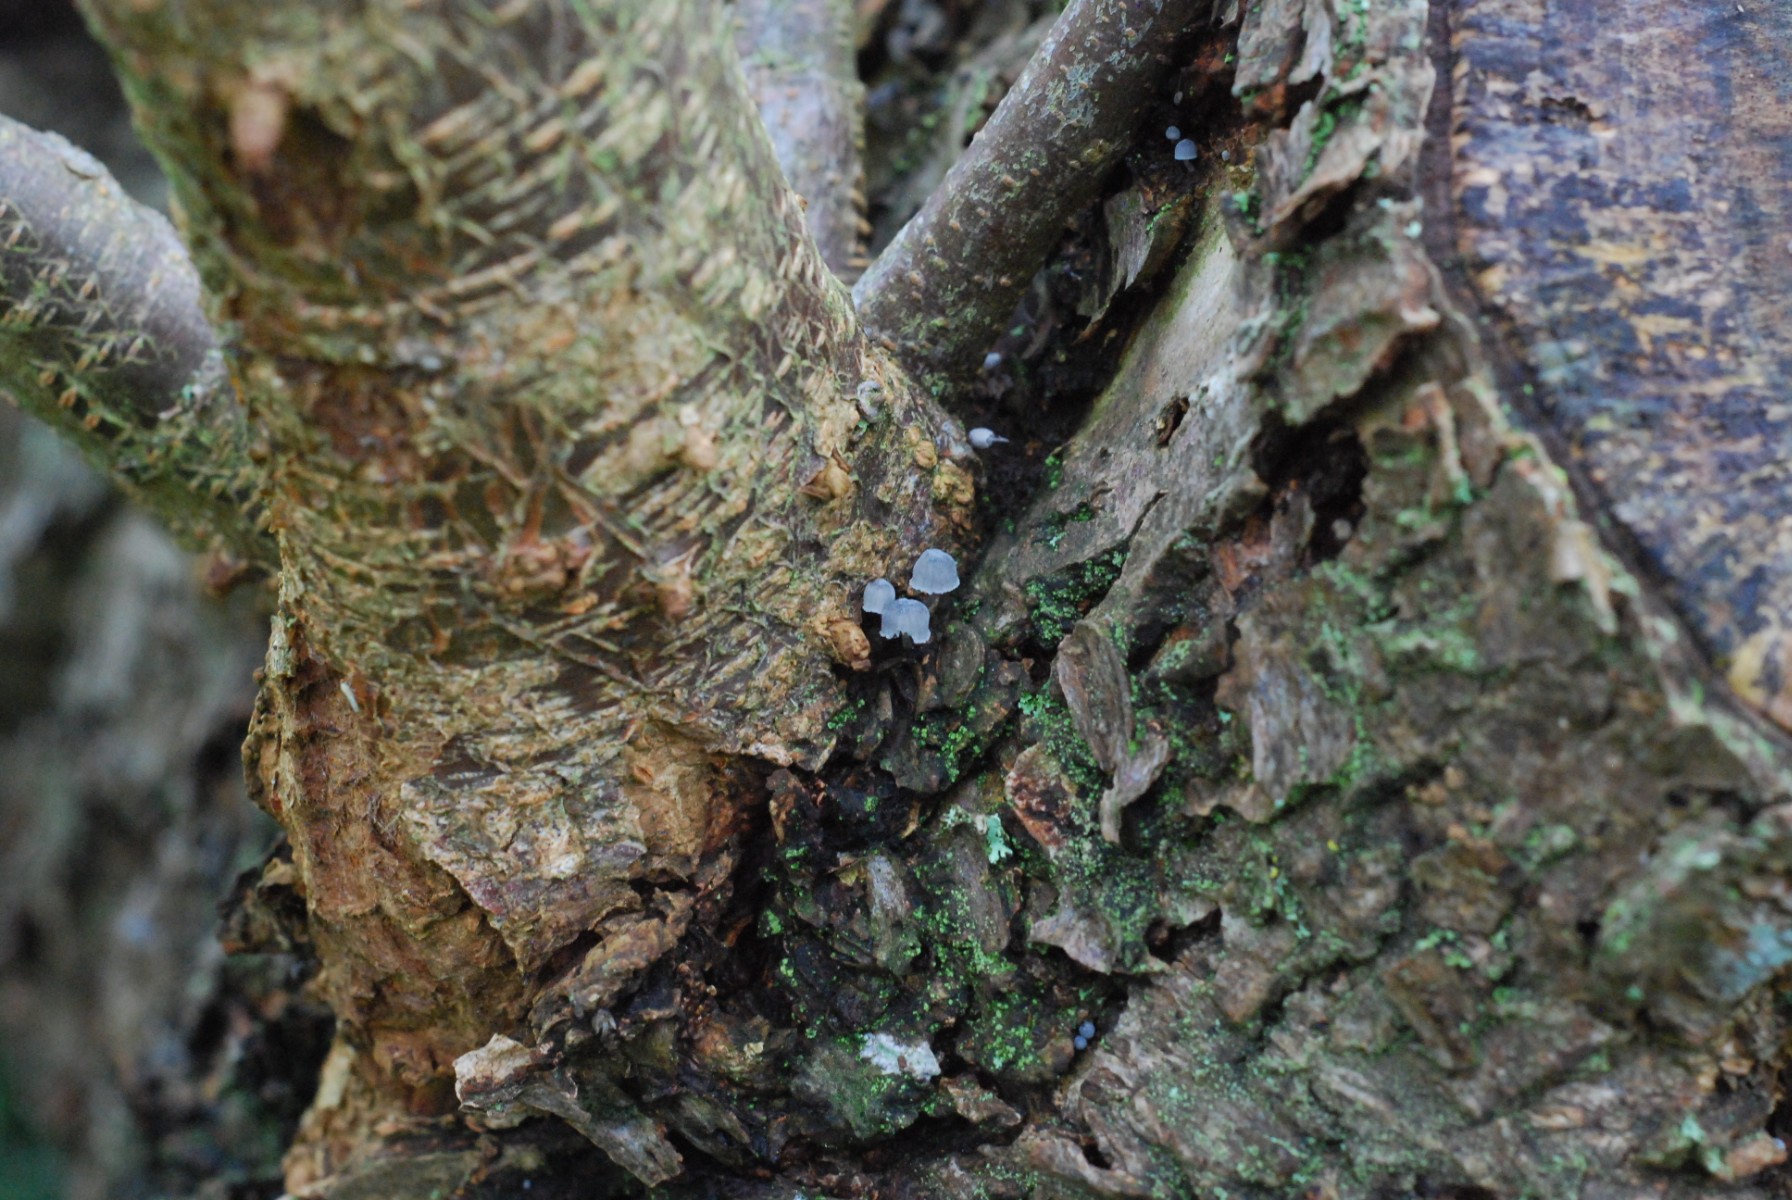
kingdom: Fungi
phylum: Basidiomycota
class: Agaricomycetes
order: Agaricales
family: Mycenaceae
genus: Mycena
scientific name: Mycena pseudocorticola
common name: gråblå bark-huesvamp
